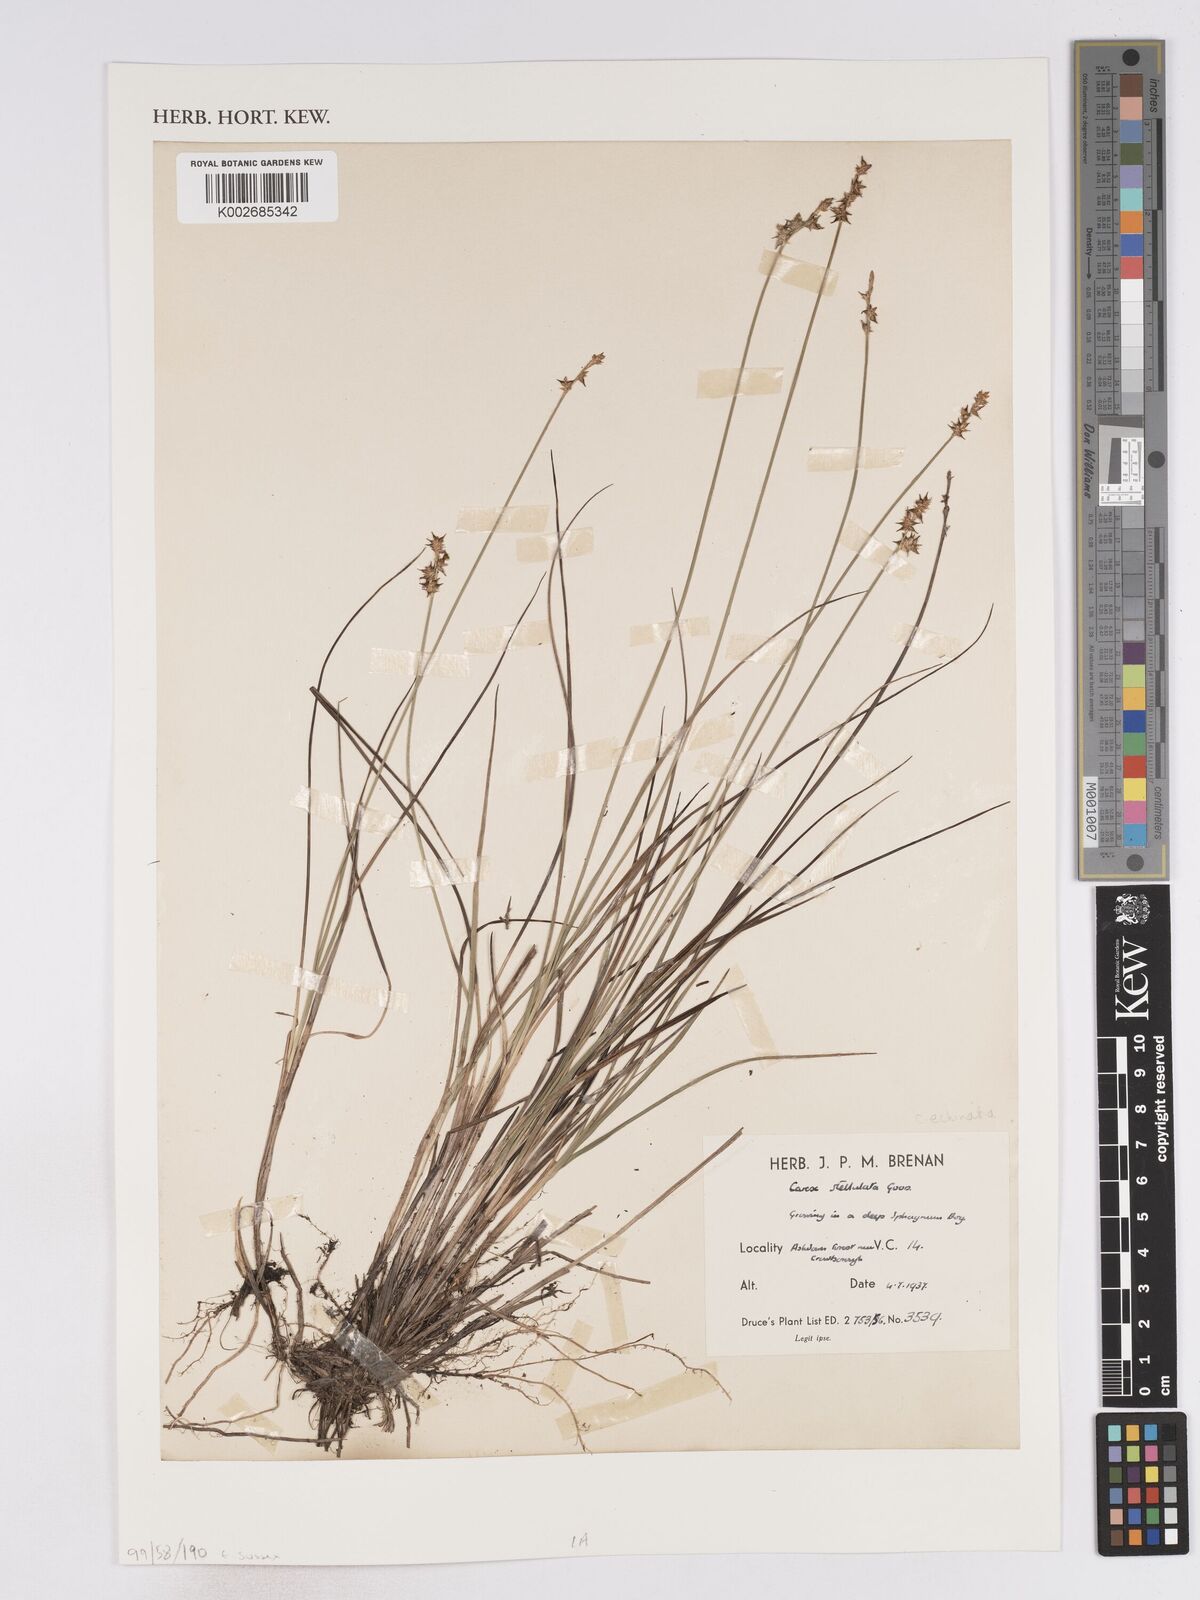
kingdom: Plantae
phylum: Tracheophyta
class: Liliopsida
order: Poales
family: Cyperaceae
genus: Carex
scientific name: Carex echinata
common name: Star sedge
